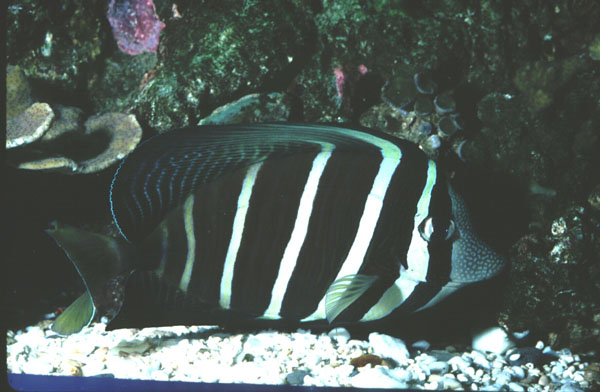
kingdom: Animalia
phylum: Chordata
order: Perciformes
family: Acanthuridae
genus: Zebrasoma
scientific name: Zebrasoma veliferum
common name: Sailfin surgeonfish
